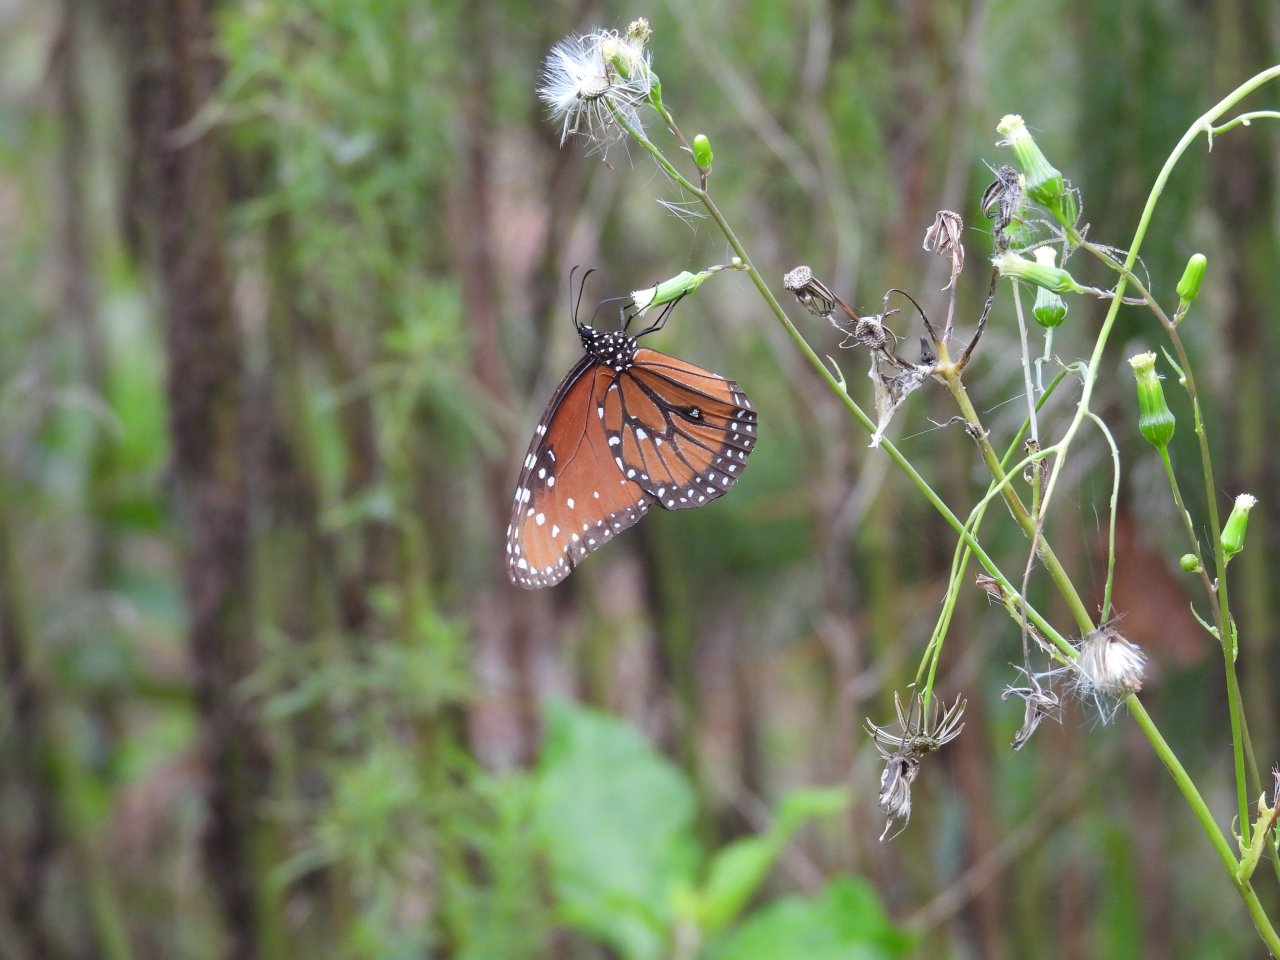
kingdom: Animalia
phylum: Arthropoda
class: Insecta
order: Lepidoptera
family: Nymphalidae
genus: Danaus
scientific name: Danaus gilippus
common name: Queen
